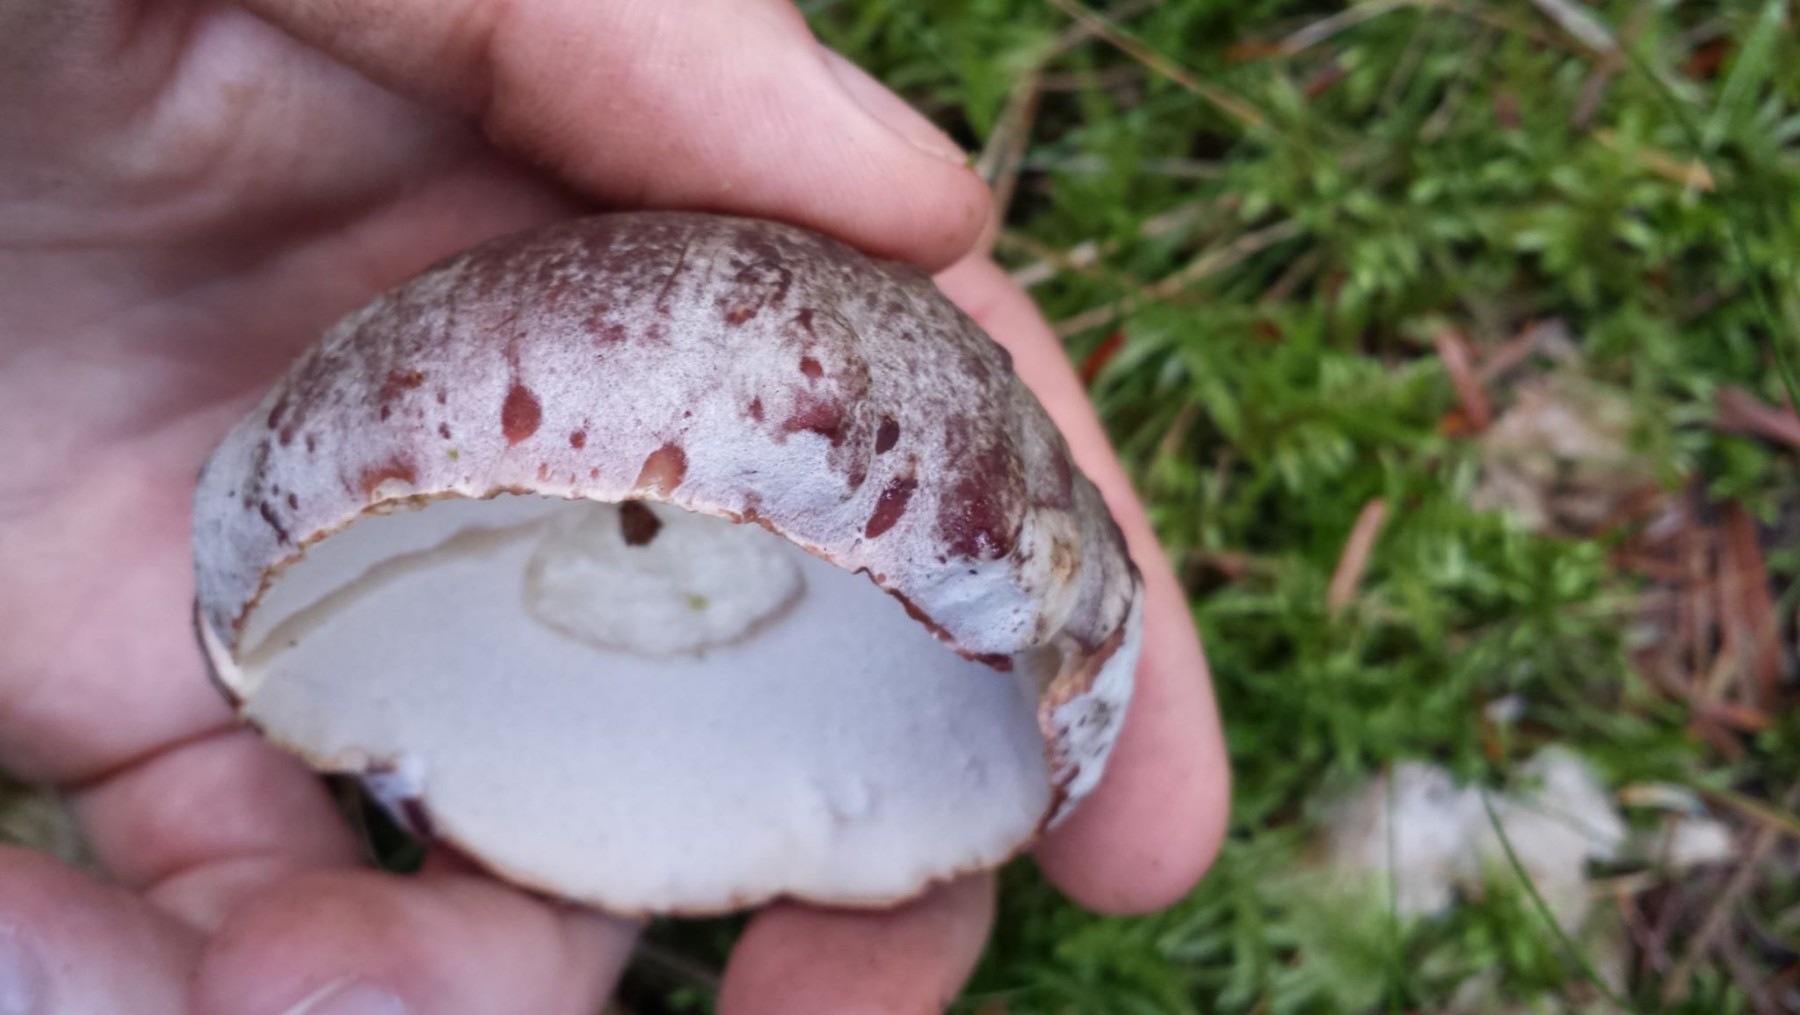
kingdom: Fungi
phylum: Basidiomycota
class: Agaricomycetes
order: Boletales
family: Boletaceae
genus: Boletus
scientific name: Boletus pinophilus
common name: rødbrun rørhat
